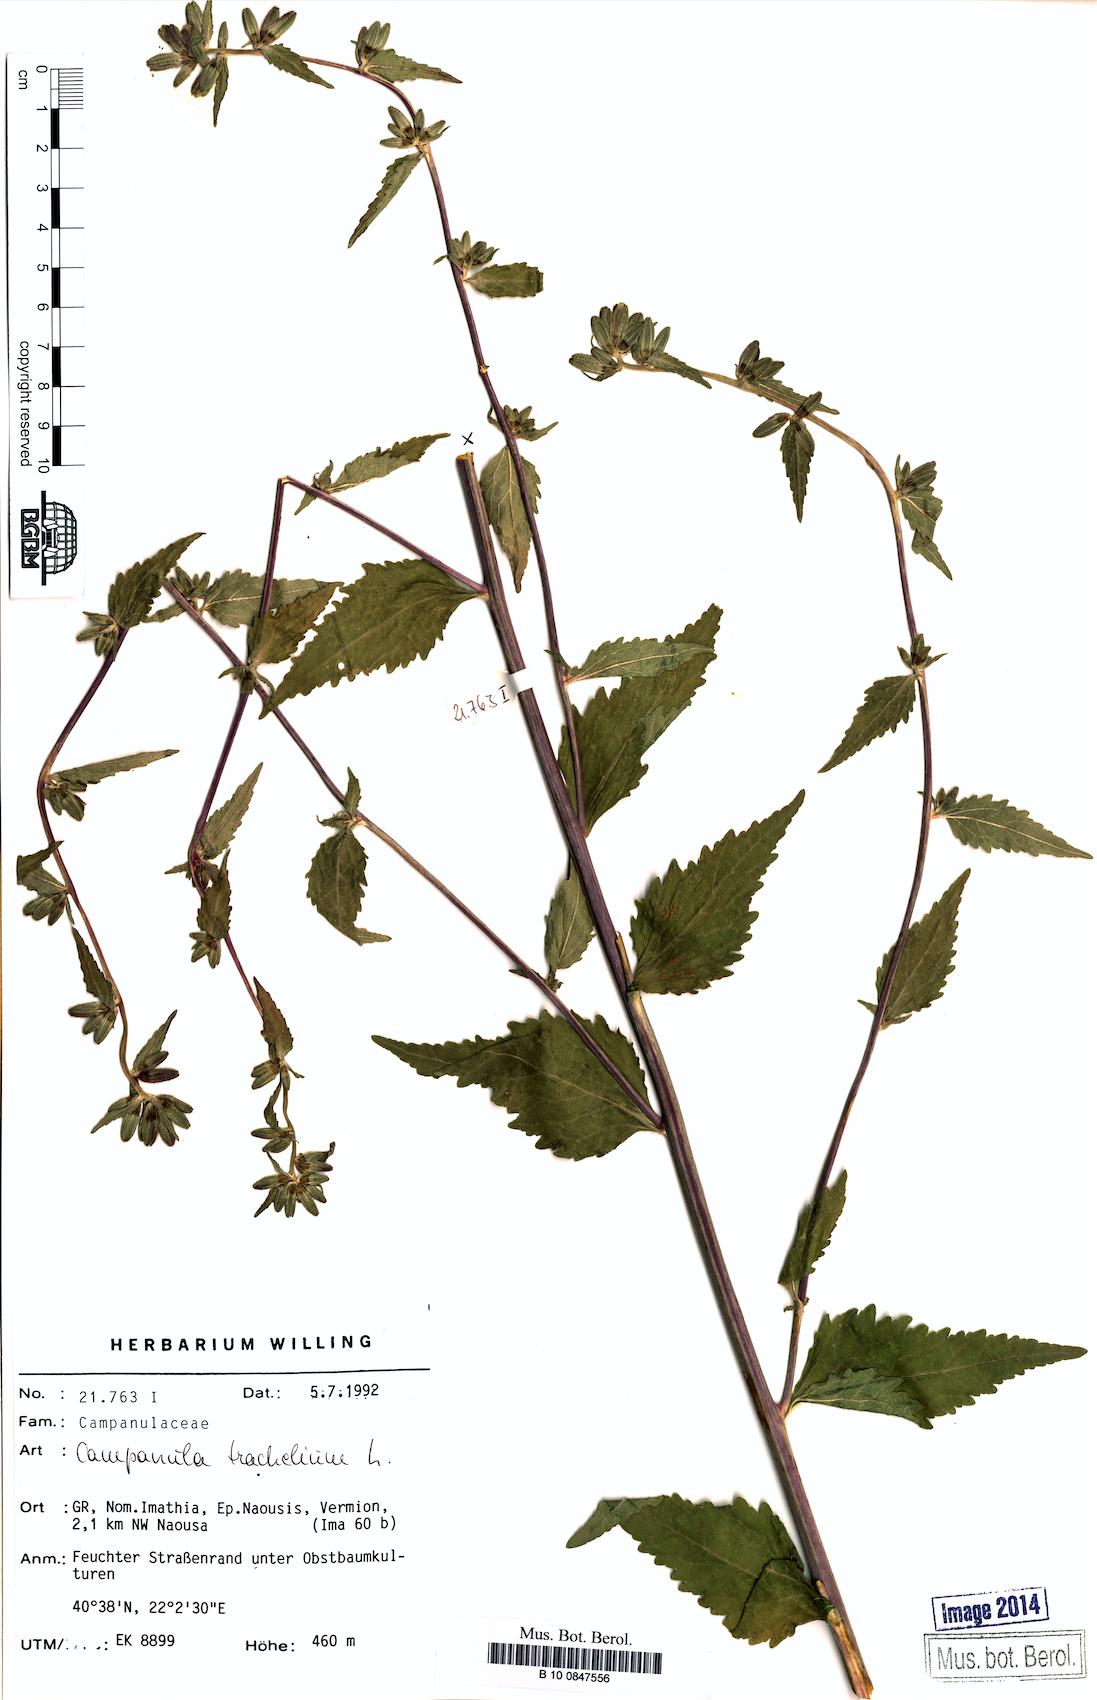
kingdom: Plantae
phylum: Tracheophyta
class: Magnoliopsida
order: Asterales
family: Campanulaceae
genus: Campanula
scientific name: Campanula trachelium
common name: Nettle-leaved bellflower
